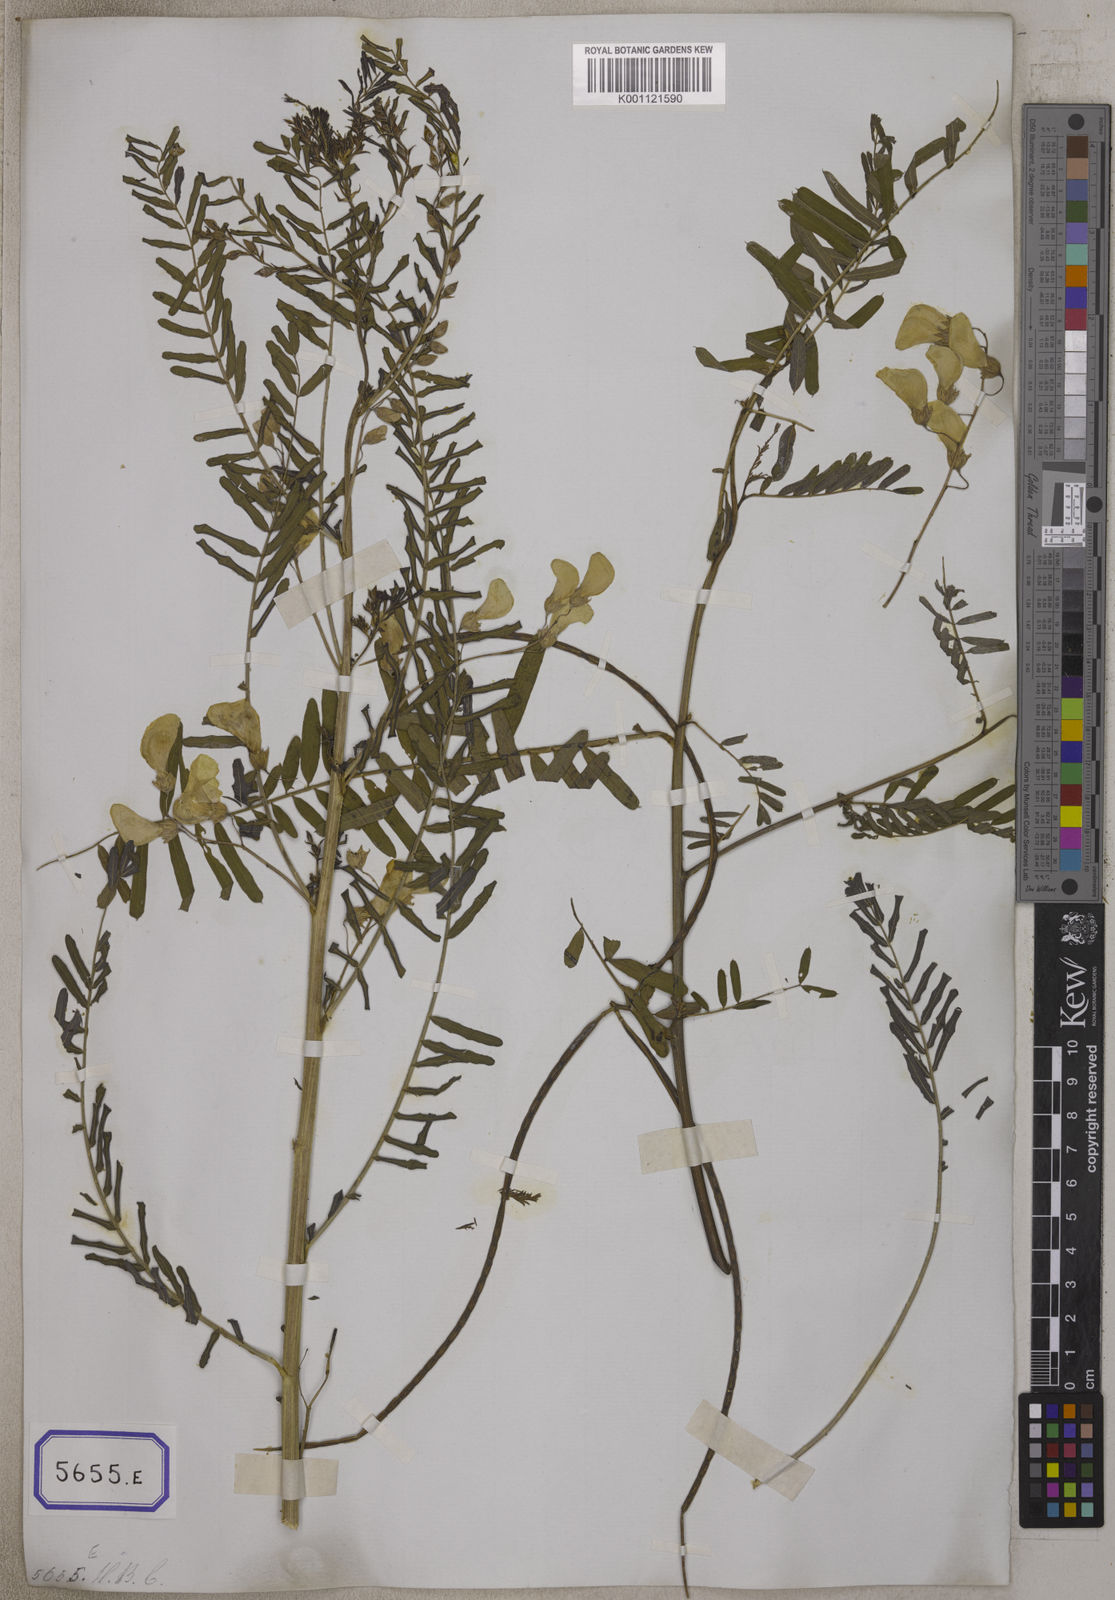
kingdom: Plantae
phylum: Tracheophyta
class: Magnoliopsida
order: Fabales
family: Fabaceae
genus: Sesbania
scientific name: Sesbania bispinosa
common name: Sesbania pea
